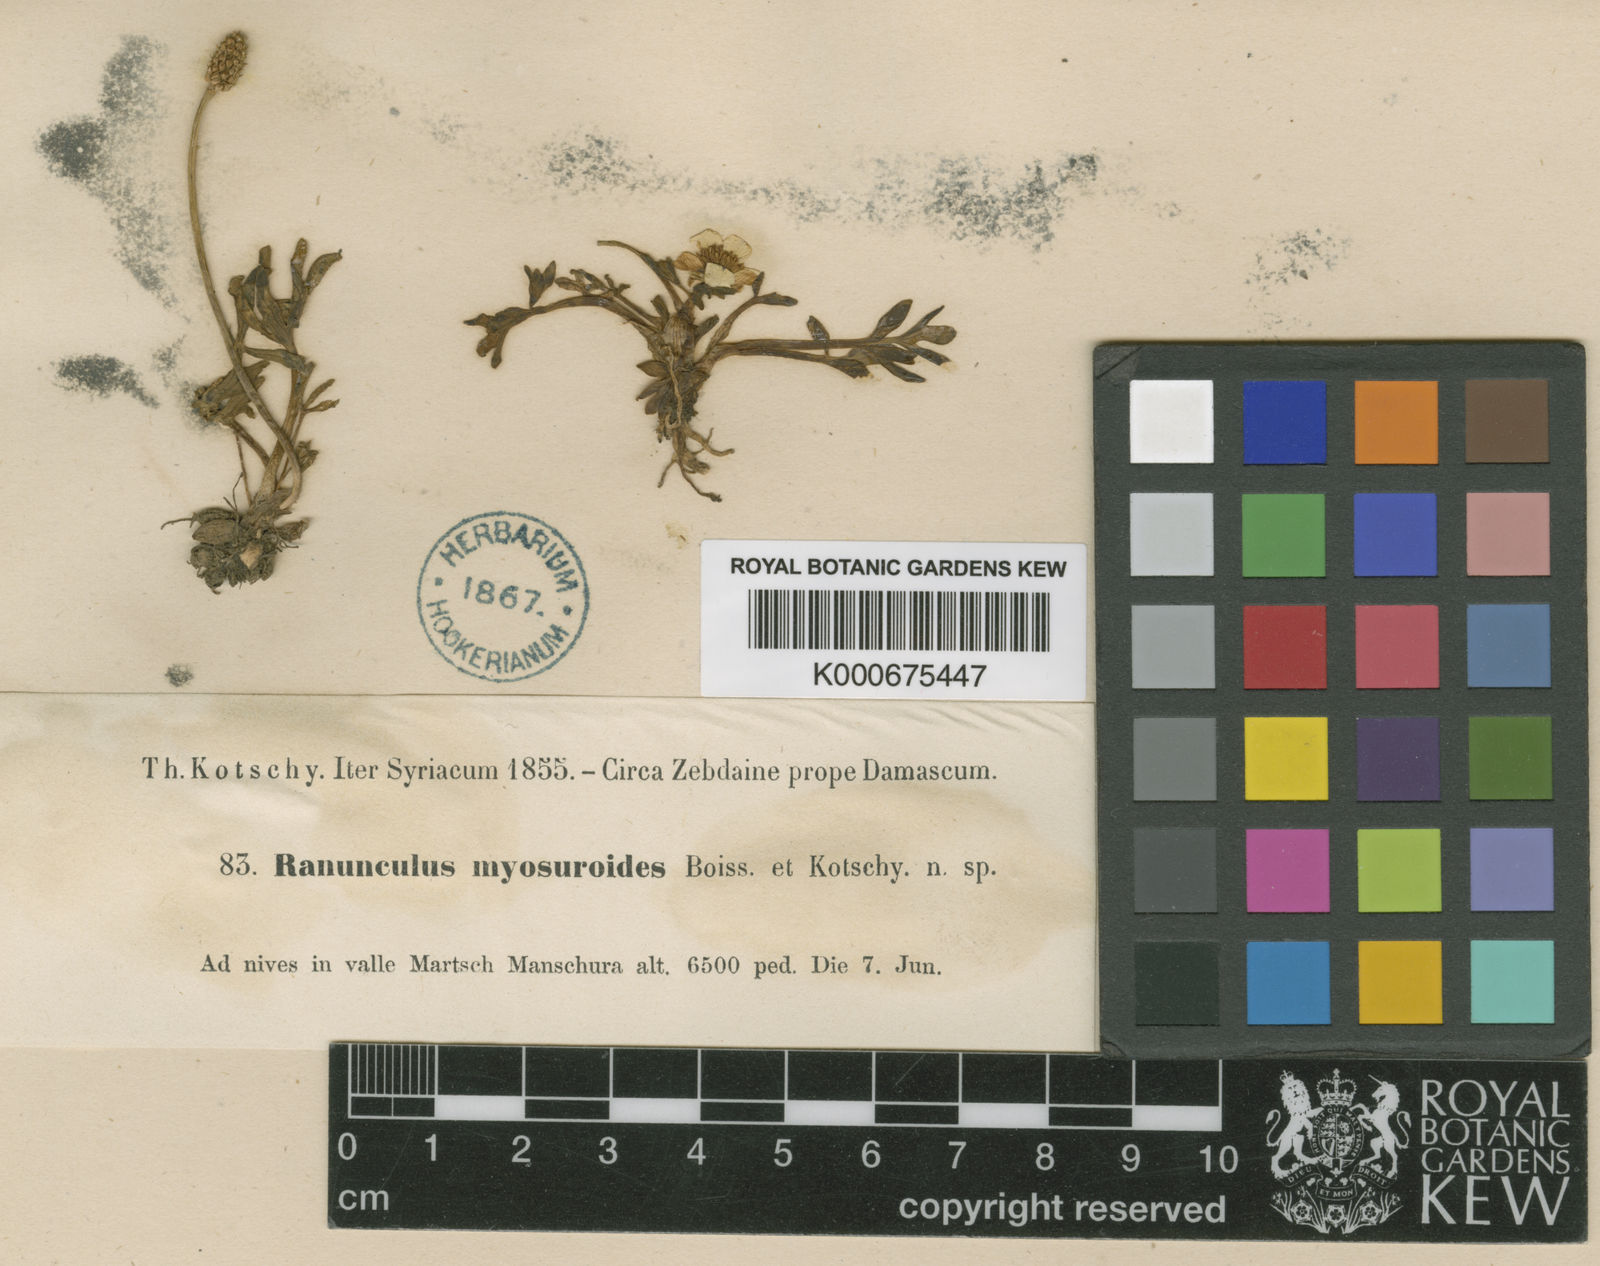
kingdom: Plantae
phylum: Tracheophyta
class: Magnoliopsida
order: Ranunculales
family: Ranunculaceae
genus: Ranunculus
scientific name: Ranunculus myosuroides
